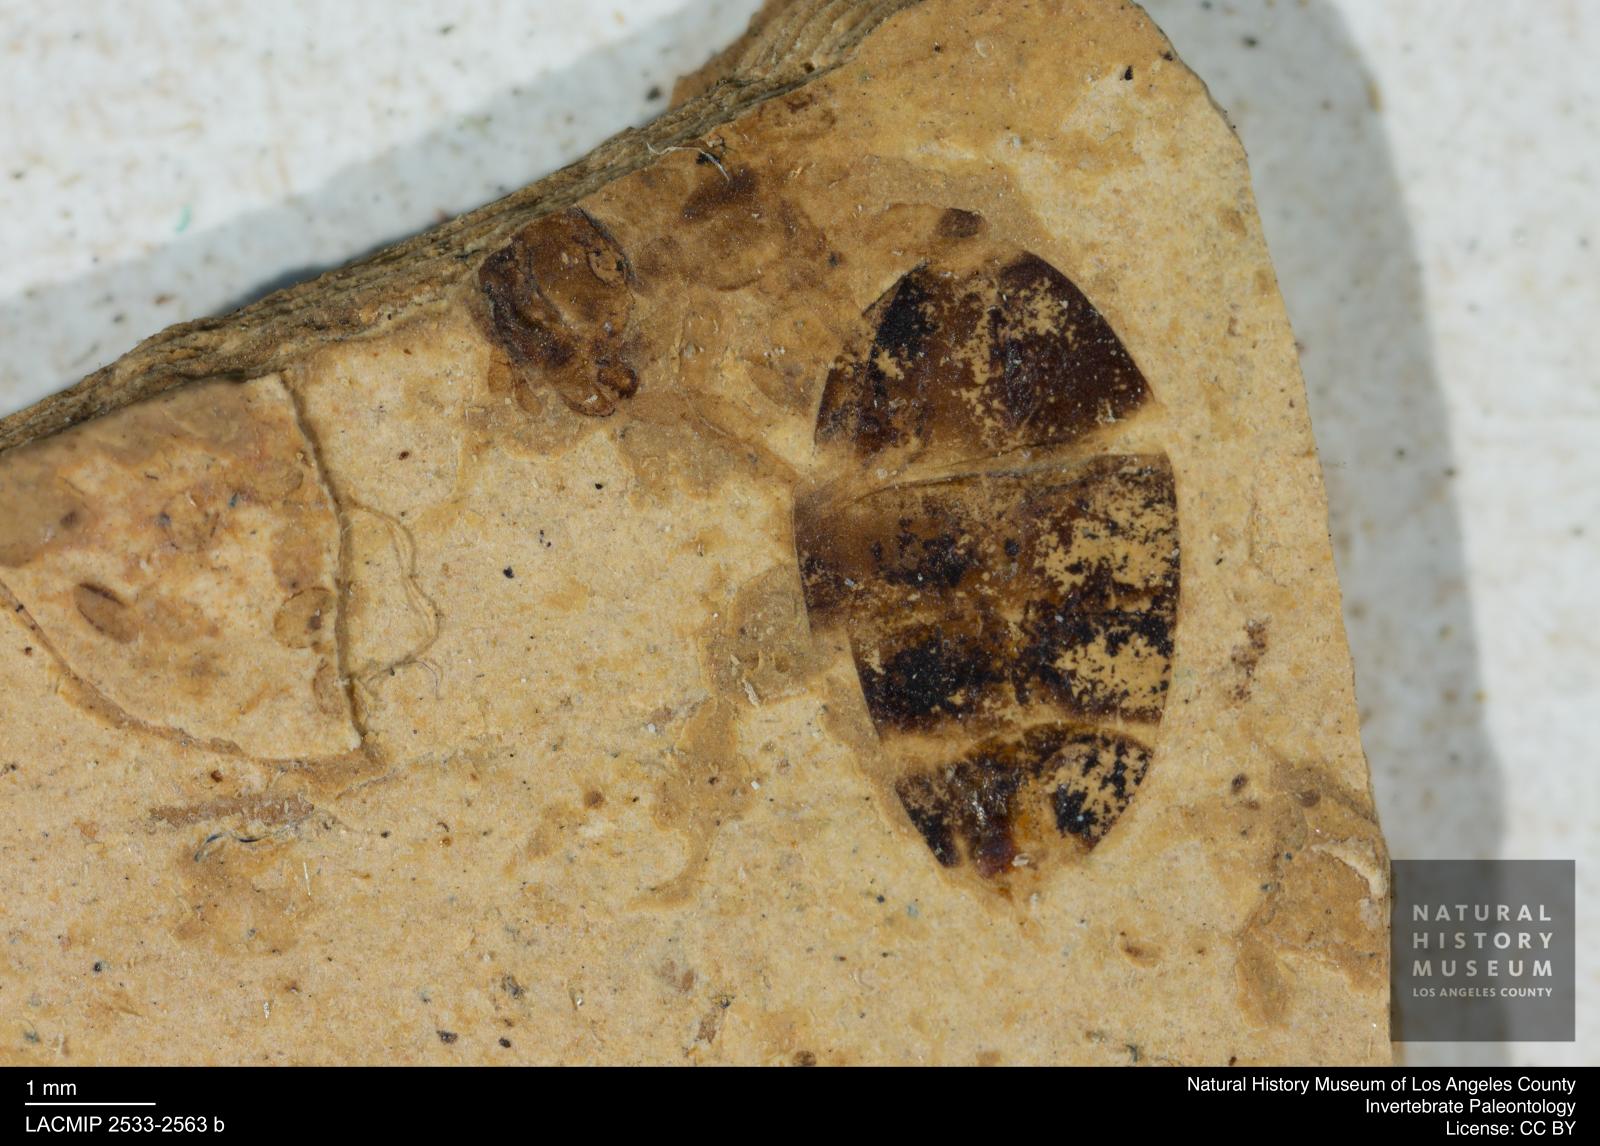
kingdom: Animalia
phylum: Arthropoda
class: Insecta
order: Hymenoptera
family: Formicidae
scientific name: Formicidae
